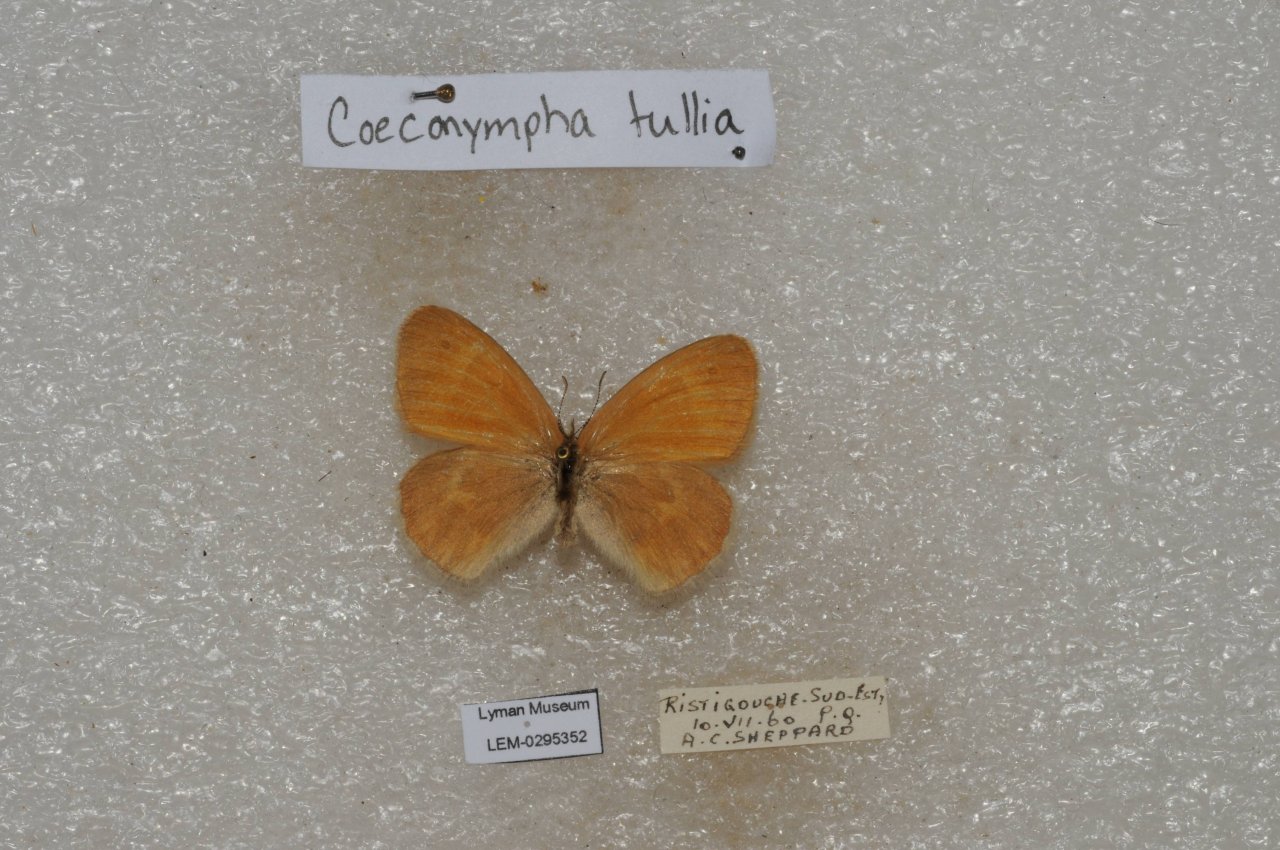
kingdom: Animalia
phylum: Arthropoda
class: Insecta
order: Lepidoptera
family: Nymphalidae
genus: Coenonympha
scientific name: Coenonympha tullia
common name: Large Heath
